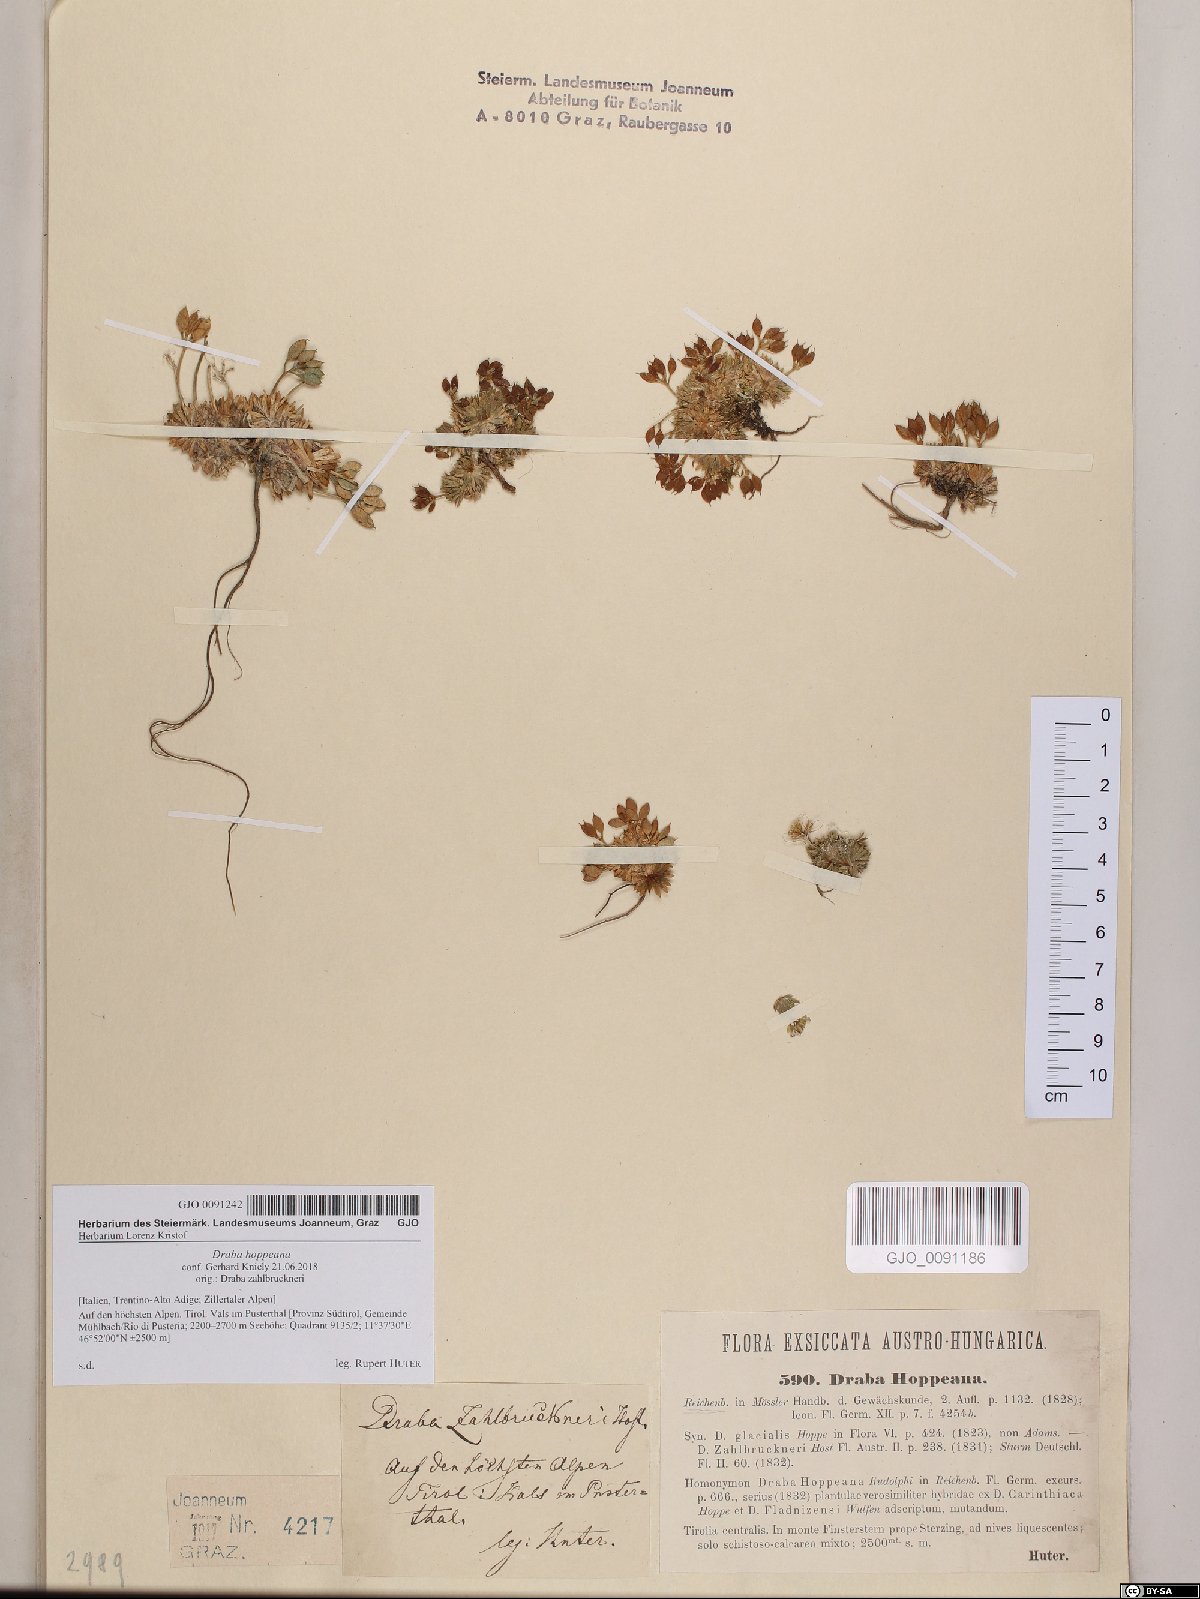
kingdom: Plantae
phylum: Tracheophyta
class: Magnoliopsida
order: Brassicales
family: Brassicaceae
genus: Draba
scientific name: Draba hoppeana
